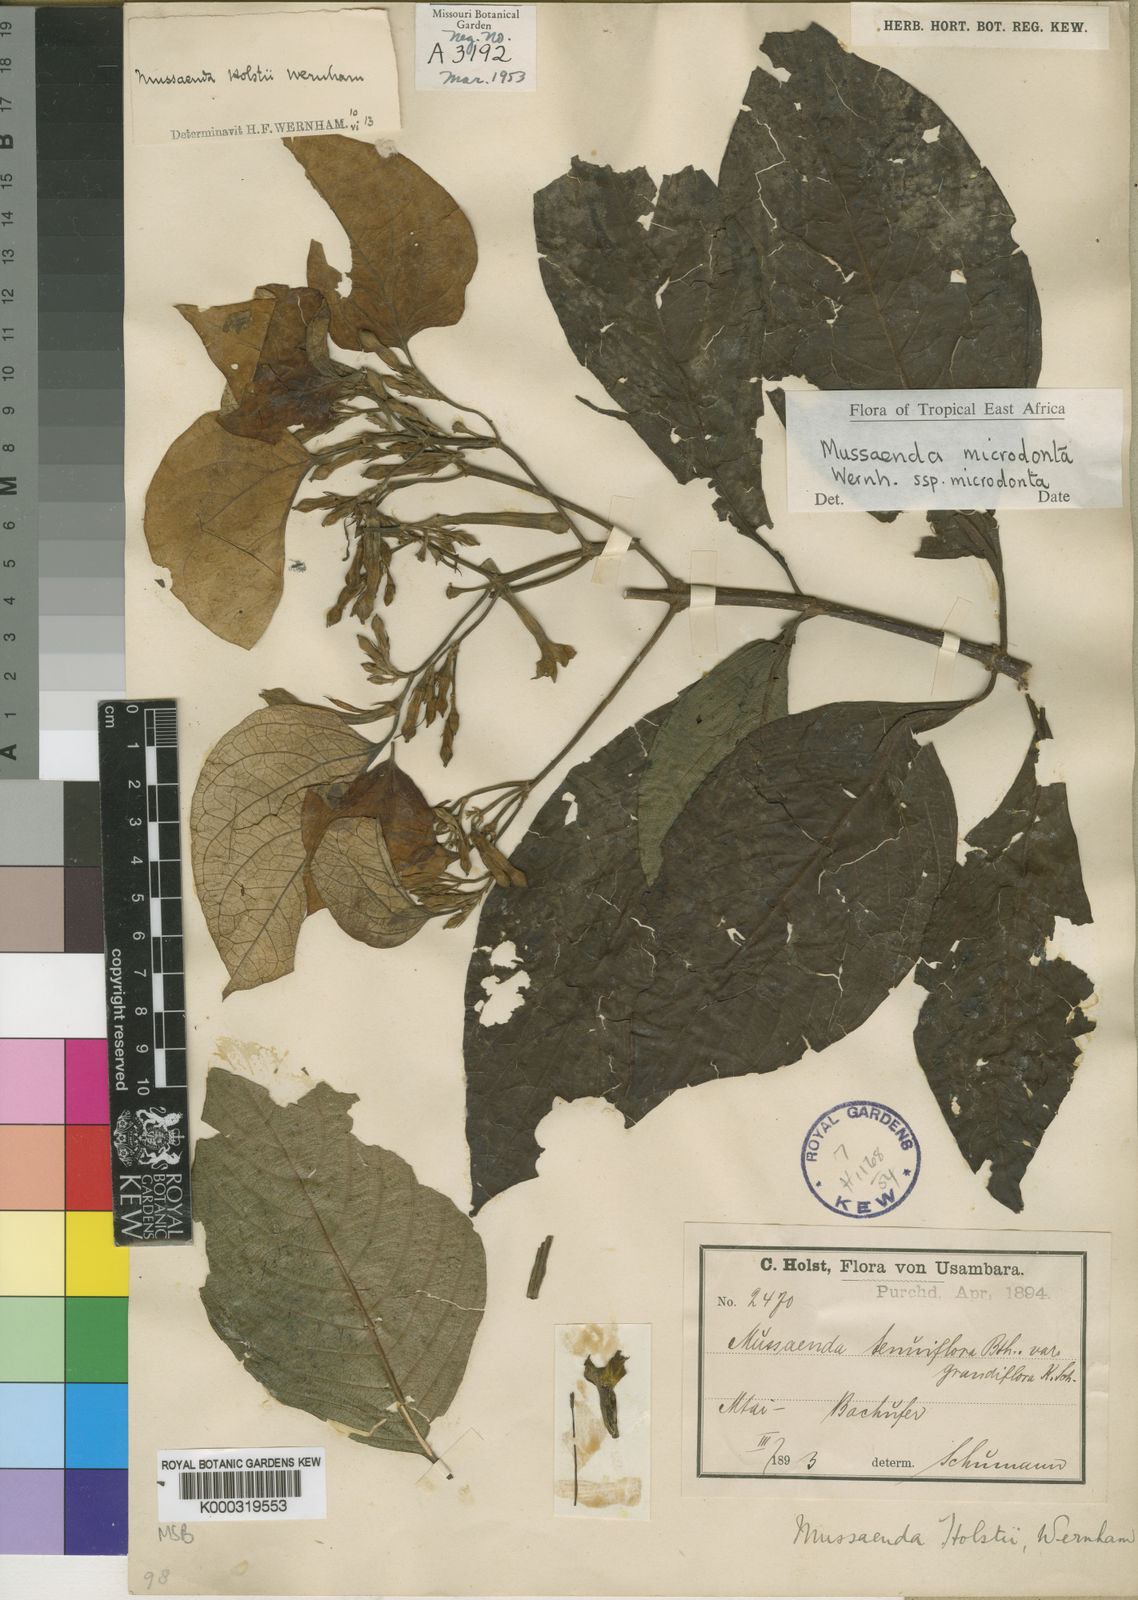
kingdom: Plantae
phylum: Tracheophyta
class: Magnoliopsida
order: Gentianales
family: Rubiaceae
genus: Mussaenda
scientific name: Mussaenda microdonta
